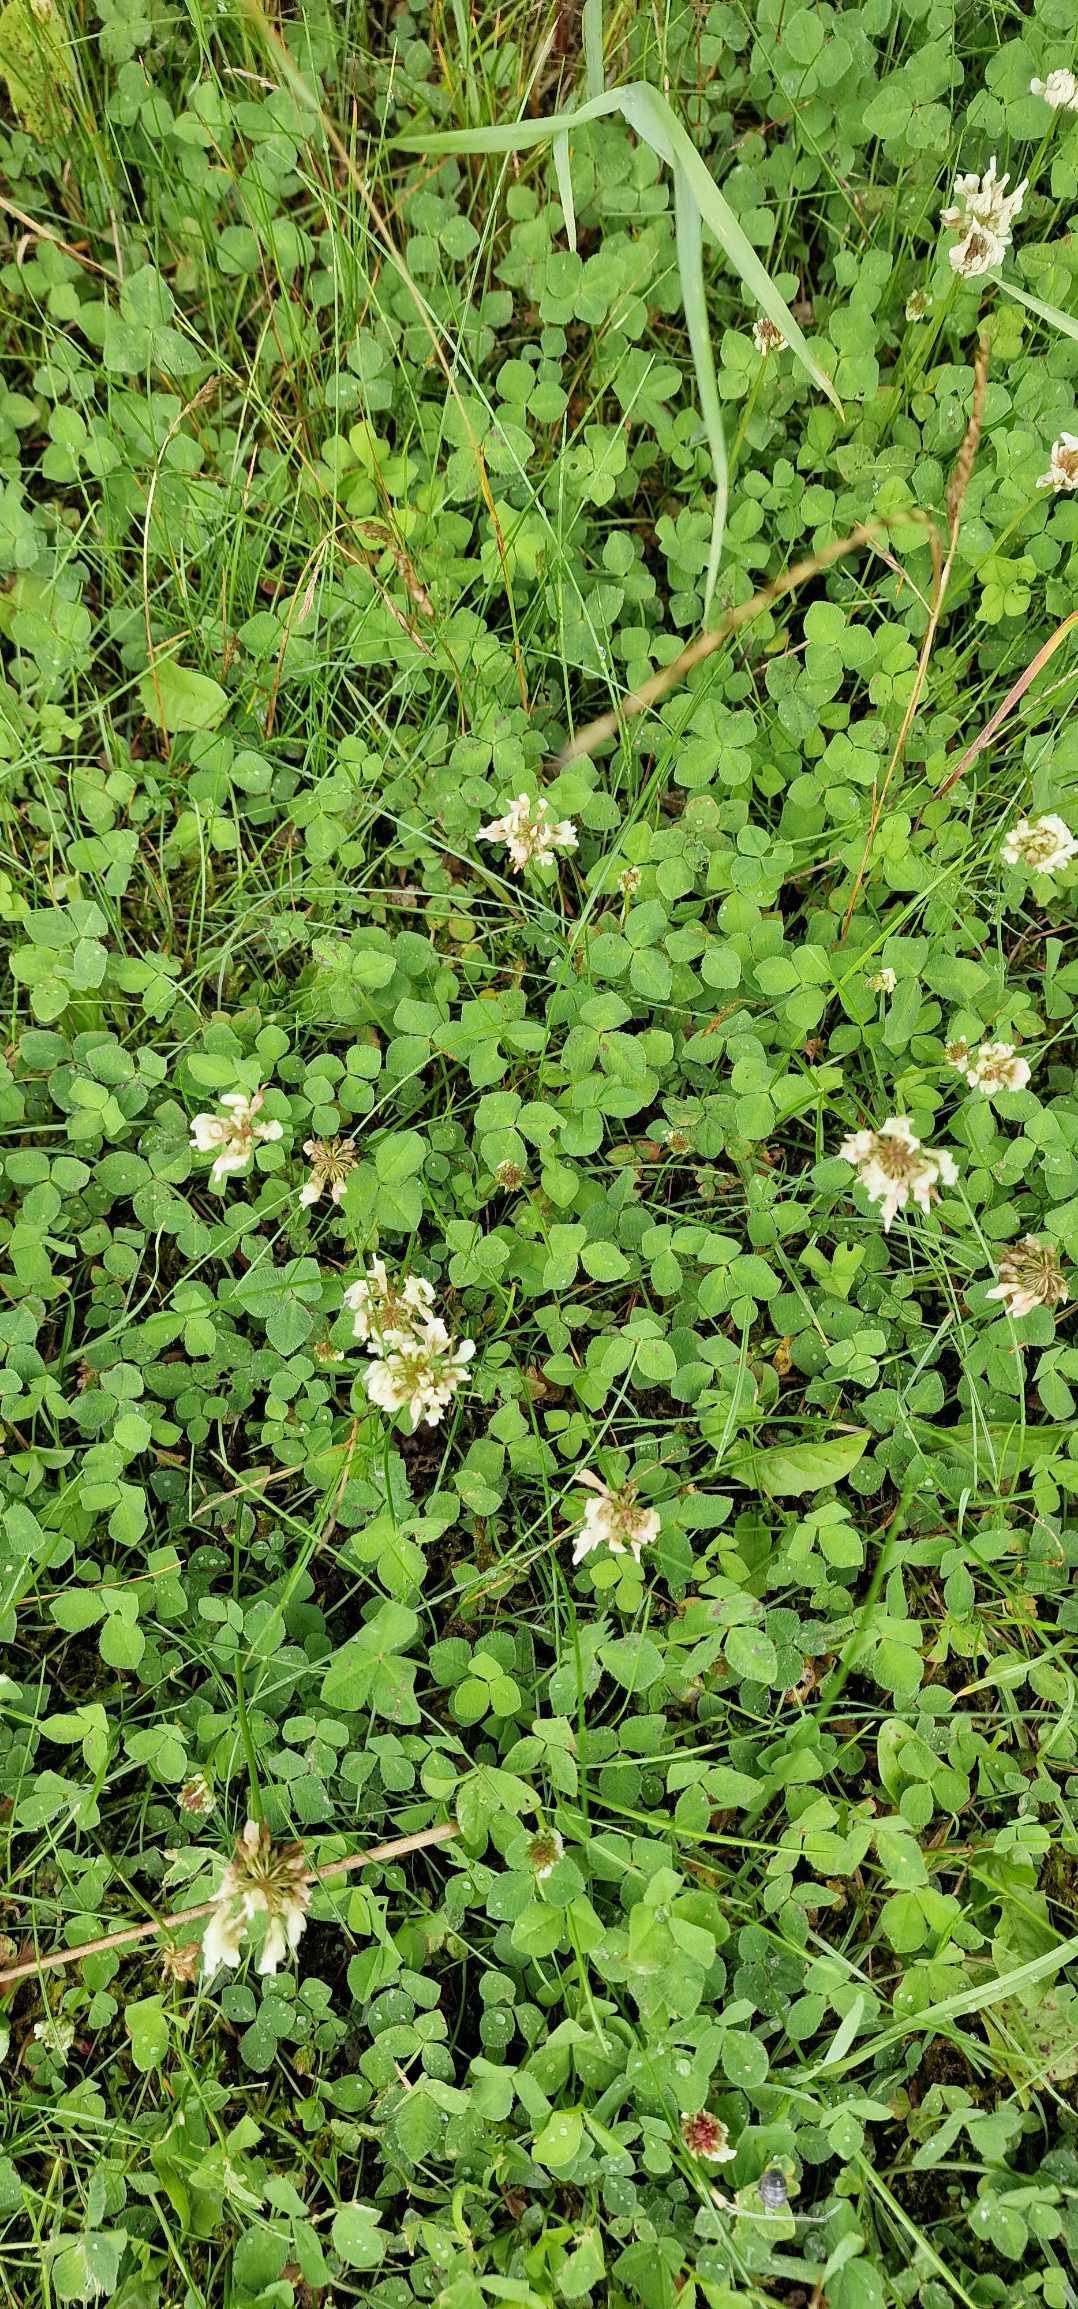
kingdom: Plantae
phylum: Tracheophyta
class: Magnoliopsida
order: Fabales
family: Fabaceae
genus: Trifolium
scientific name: Trifolium repens
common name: Hvid-kløver
